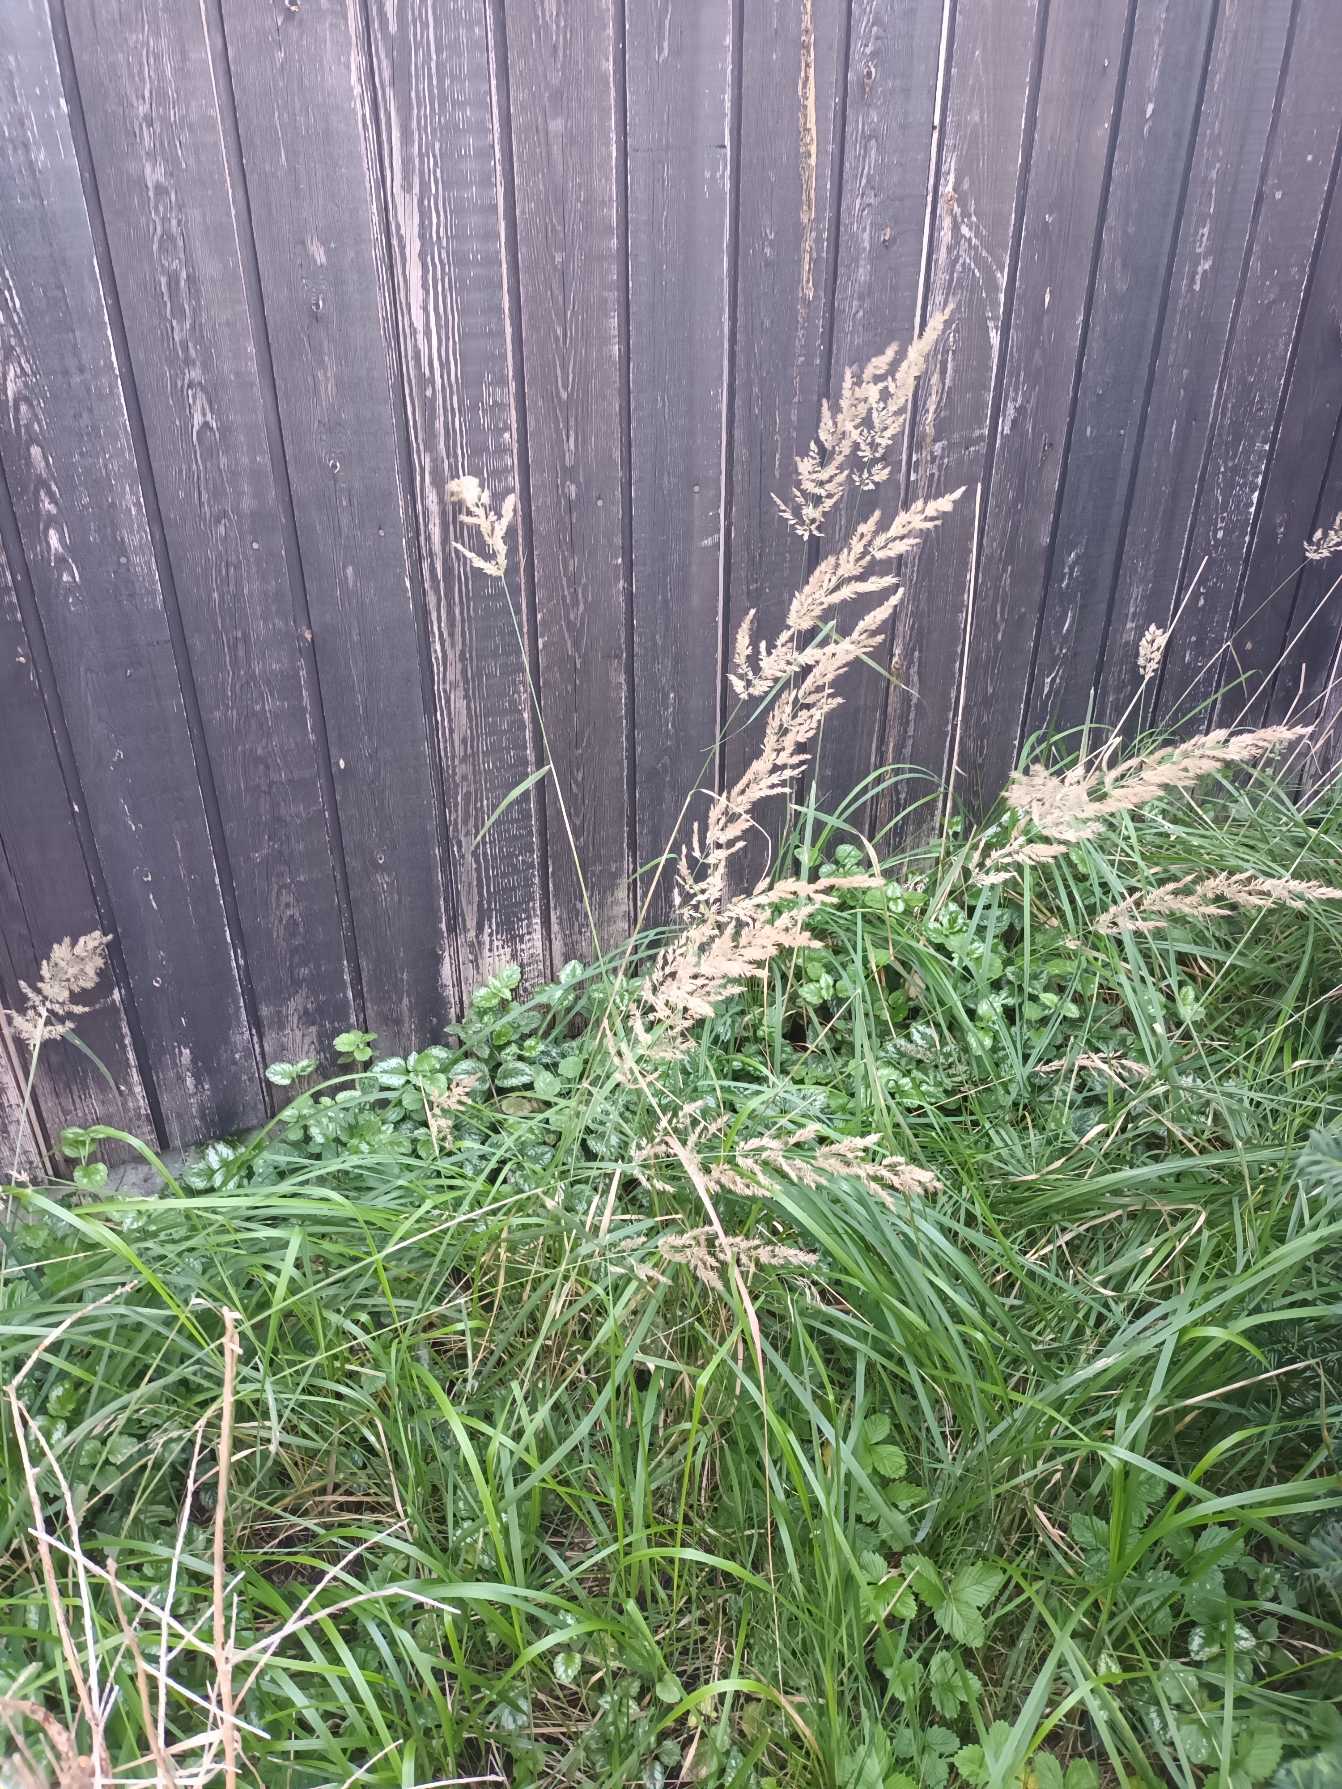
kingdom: Plantae
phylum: Tracheophyta
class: Liliopsida
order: Poales
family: Poaceae
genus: Calamagrostis
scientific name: Calamagrostis epigejos
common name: Bjerg-rørhvene
